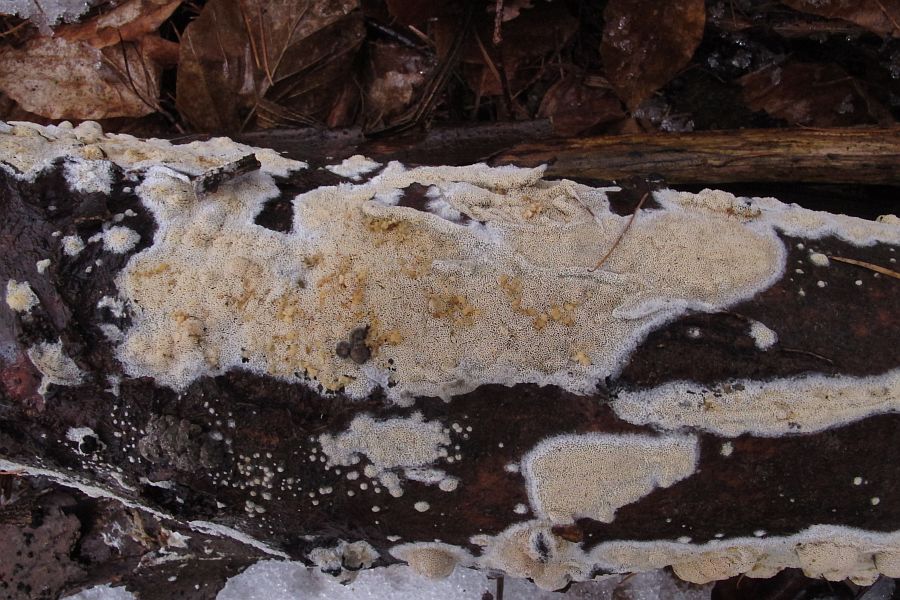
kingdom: Fungi
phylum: Basidiomycota
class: Agaricomycetes
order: Hymenochaetales
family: Schizoporaceae
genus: Xylodon
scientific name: Xylodon subtropicus
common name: labyrint-tandsvamp
